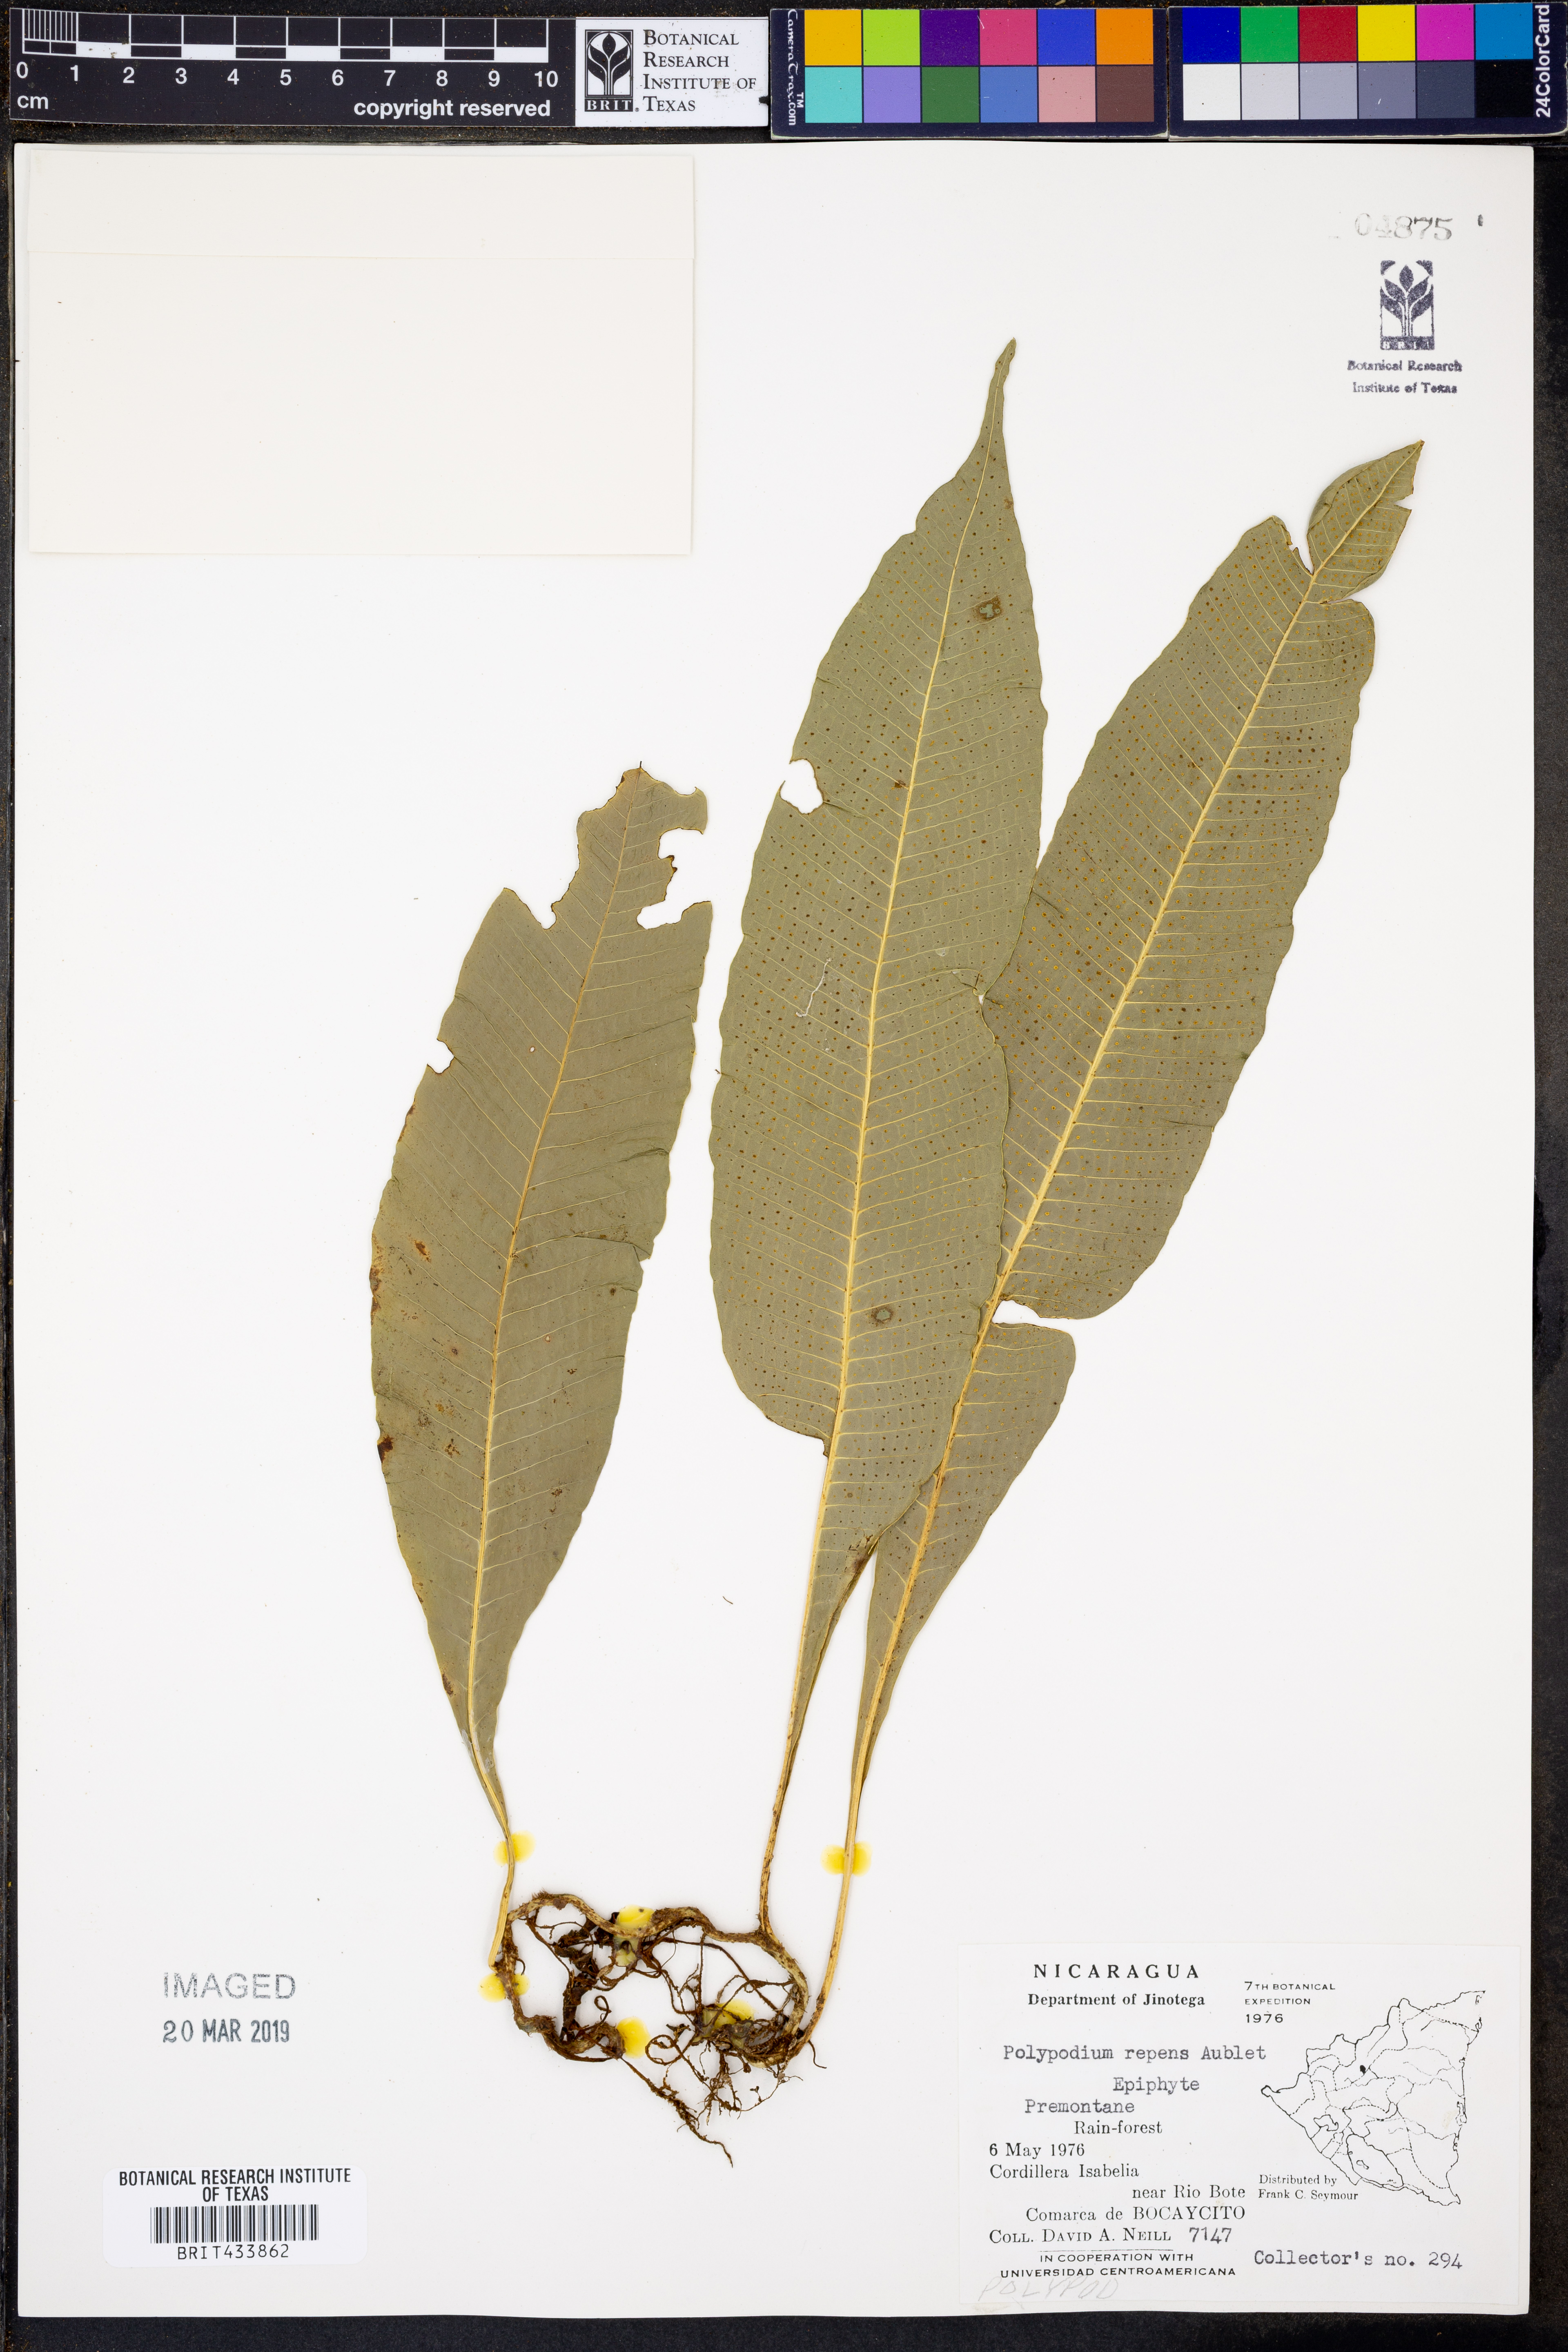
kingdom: Plantae
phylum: Tracheophyta
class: Polypodiopsida
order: Polypodiales
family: Polypodiaceae
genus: Campyloneurum
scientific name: Campyloneurum repens
